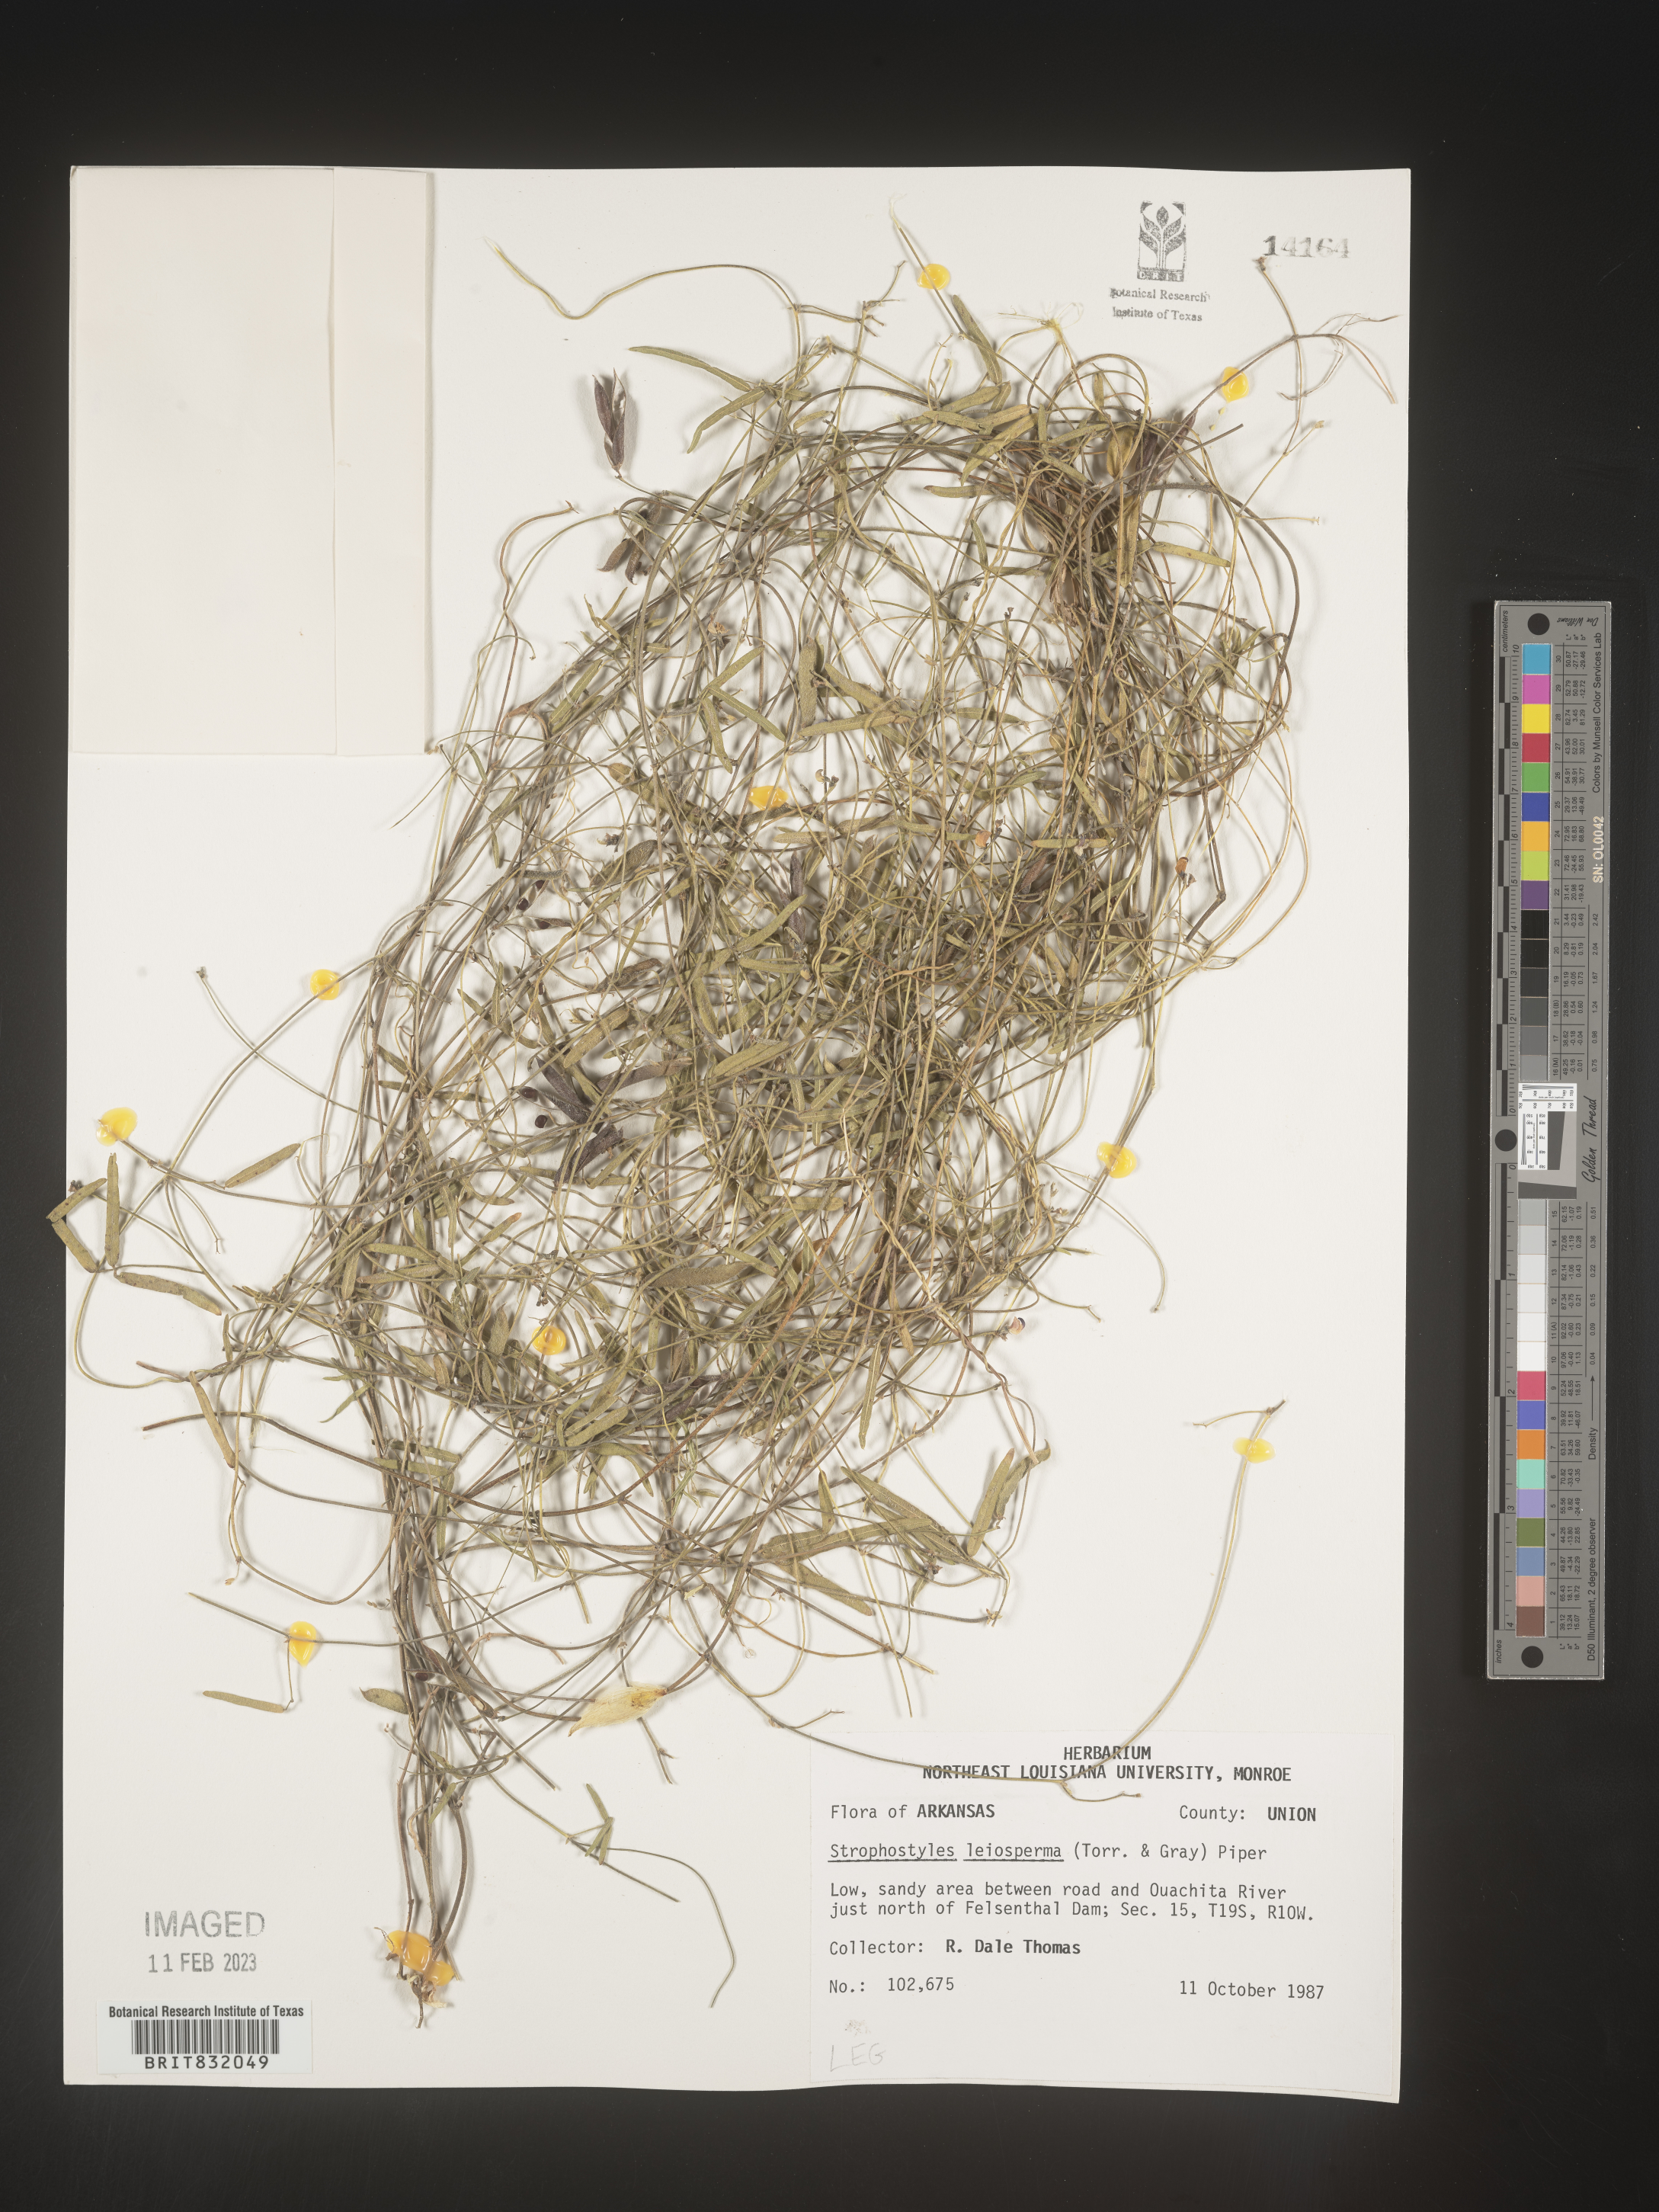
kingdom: Plantae
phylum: Tracheophyta
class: Magnoliopsida
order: Fabales
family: Fabaceae
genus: Strophostyles
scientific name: Strophostyles leiosperma
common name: Smooth-seed wild bean
